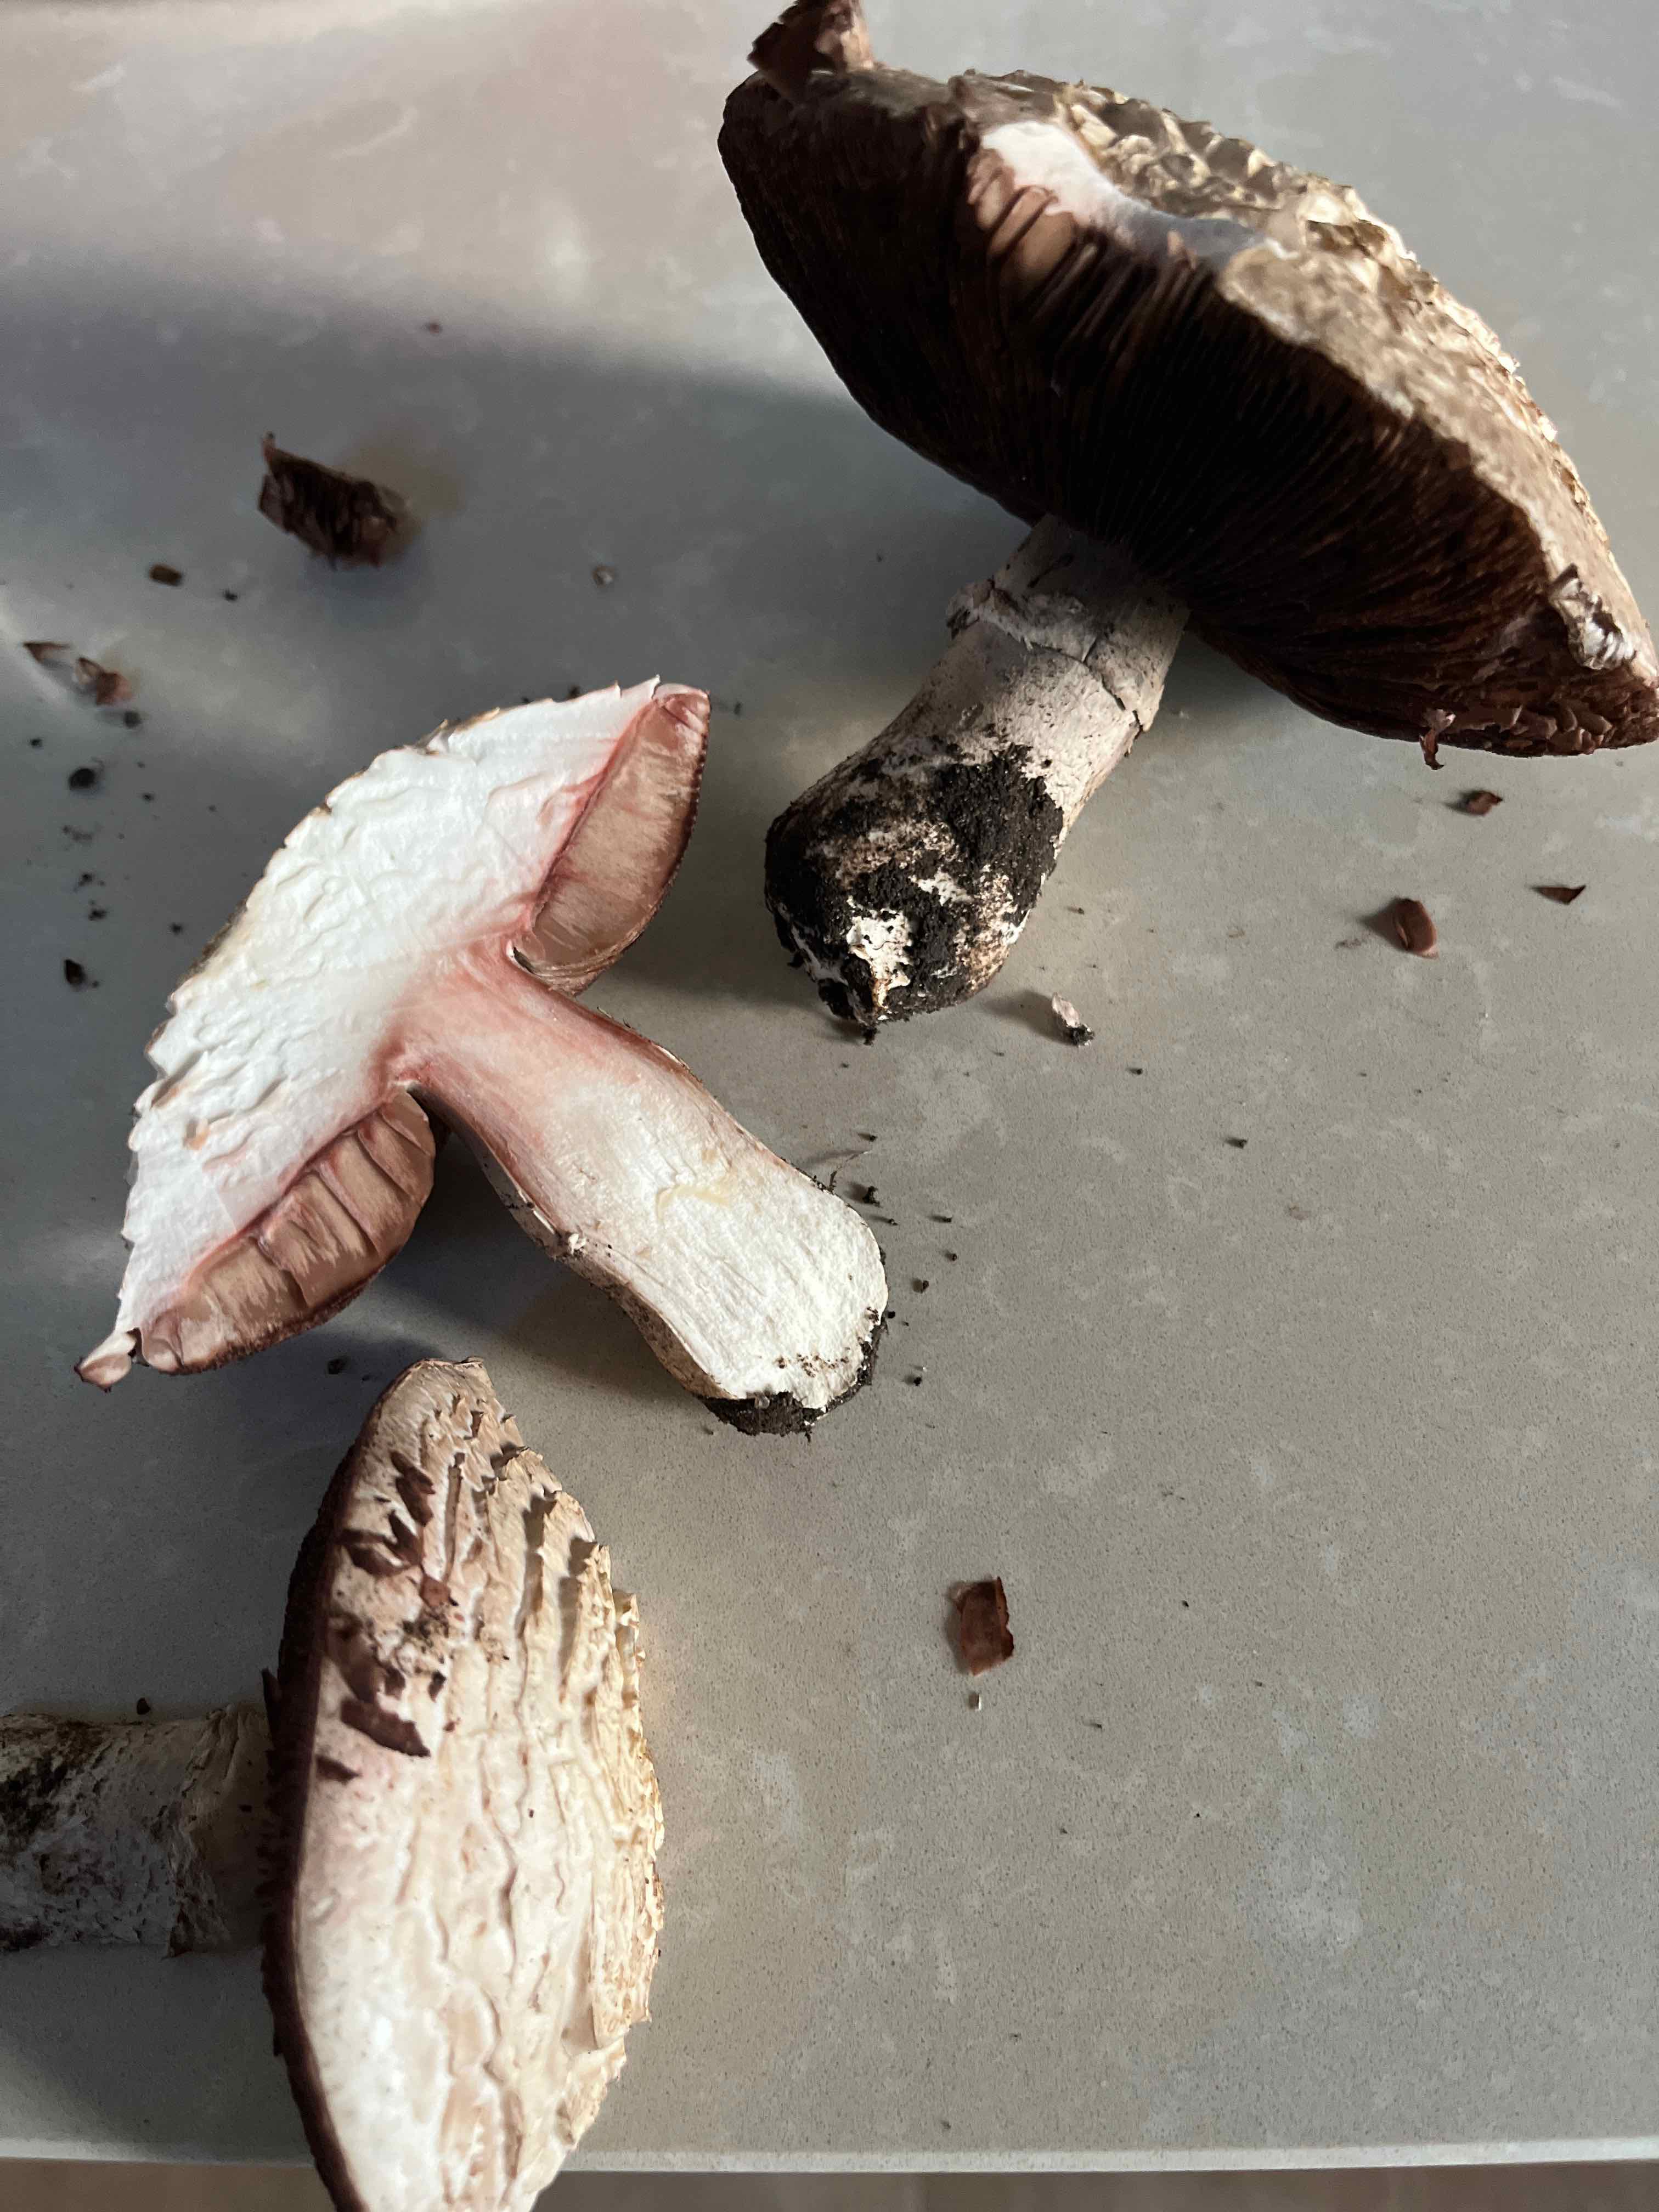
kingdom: Fungi
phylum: Basidiomycota
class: Agaricomycetes
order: Agaricales
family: Agaricaceae
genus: Agaricus
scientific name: Agaricus
